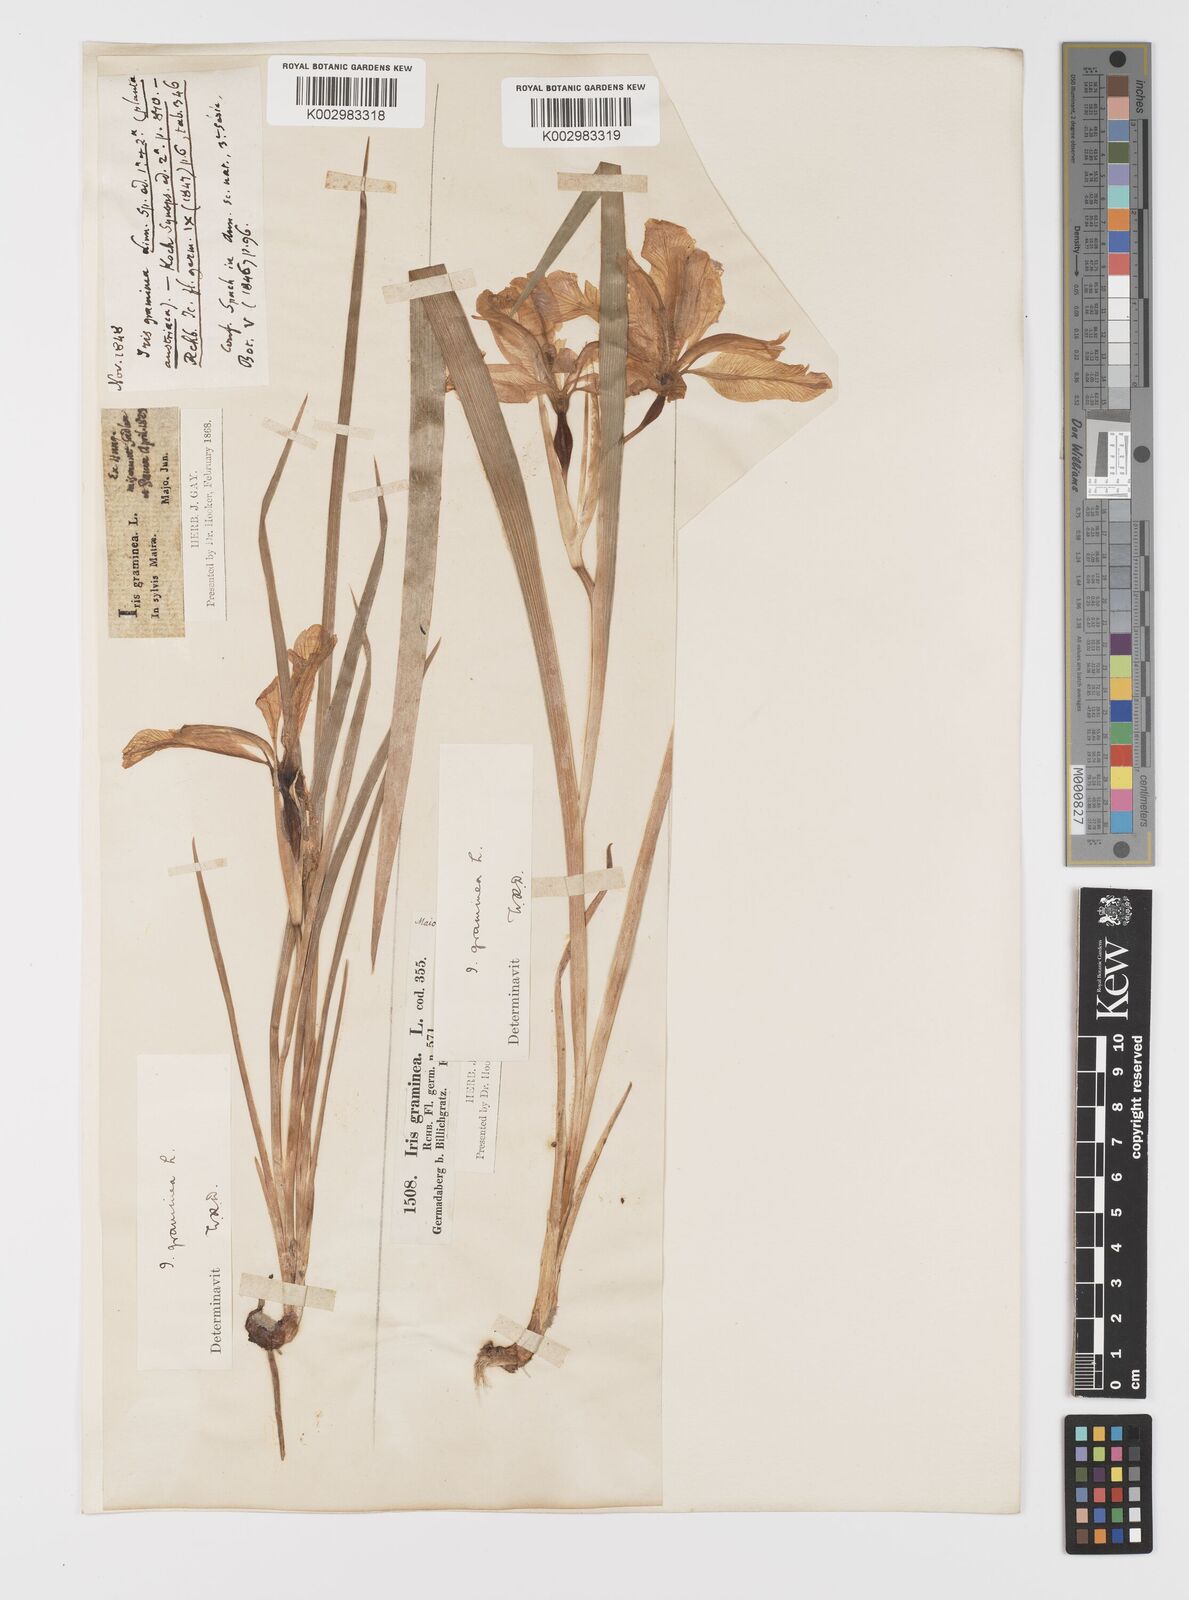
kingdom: Plantae
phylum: Tracheophyta
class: Liliopsida
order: Asparagales
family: Iridaceae
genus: Iris
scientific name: Iris graminea
